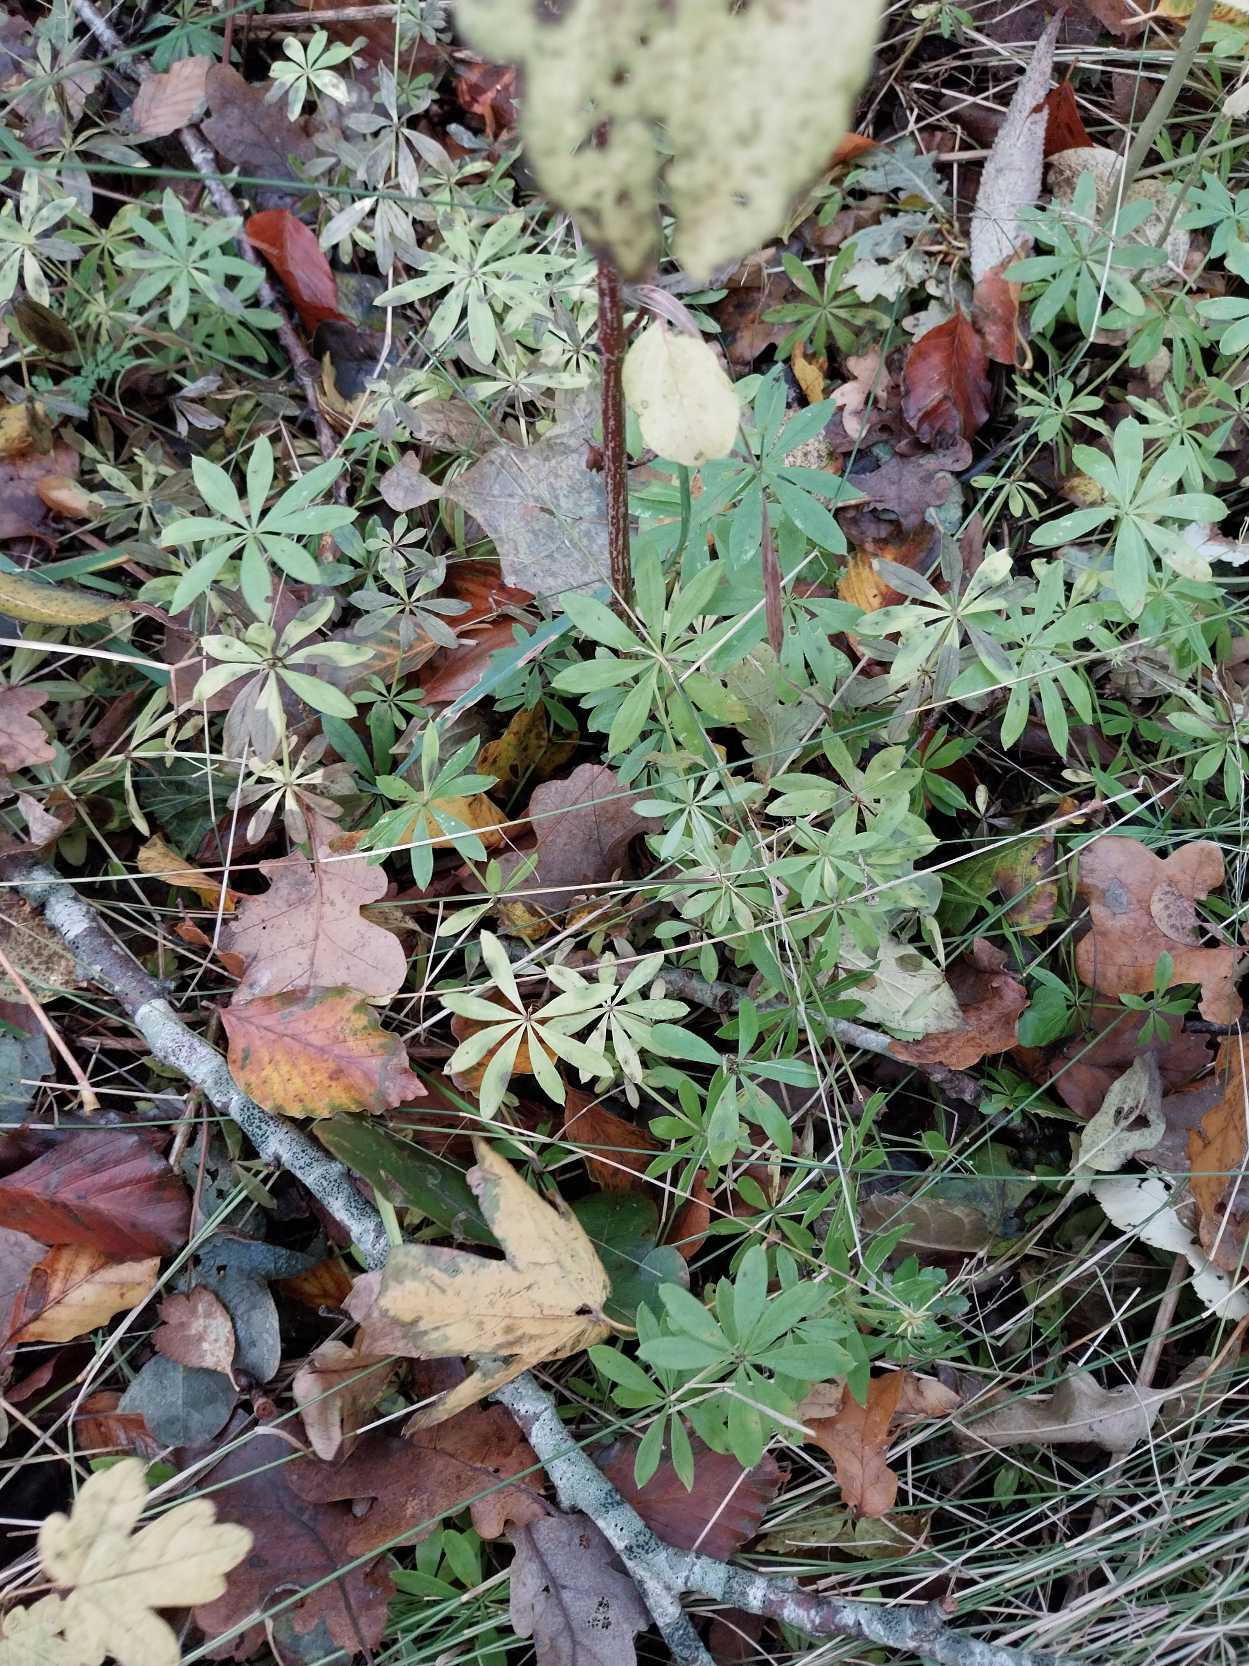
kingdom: Plantae
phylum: Tracheophyta
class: Magnoliopsida
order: Gentianales
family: Rubiaceae
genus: Galium
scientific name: Galium odoratum
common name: Skovmærke
